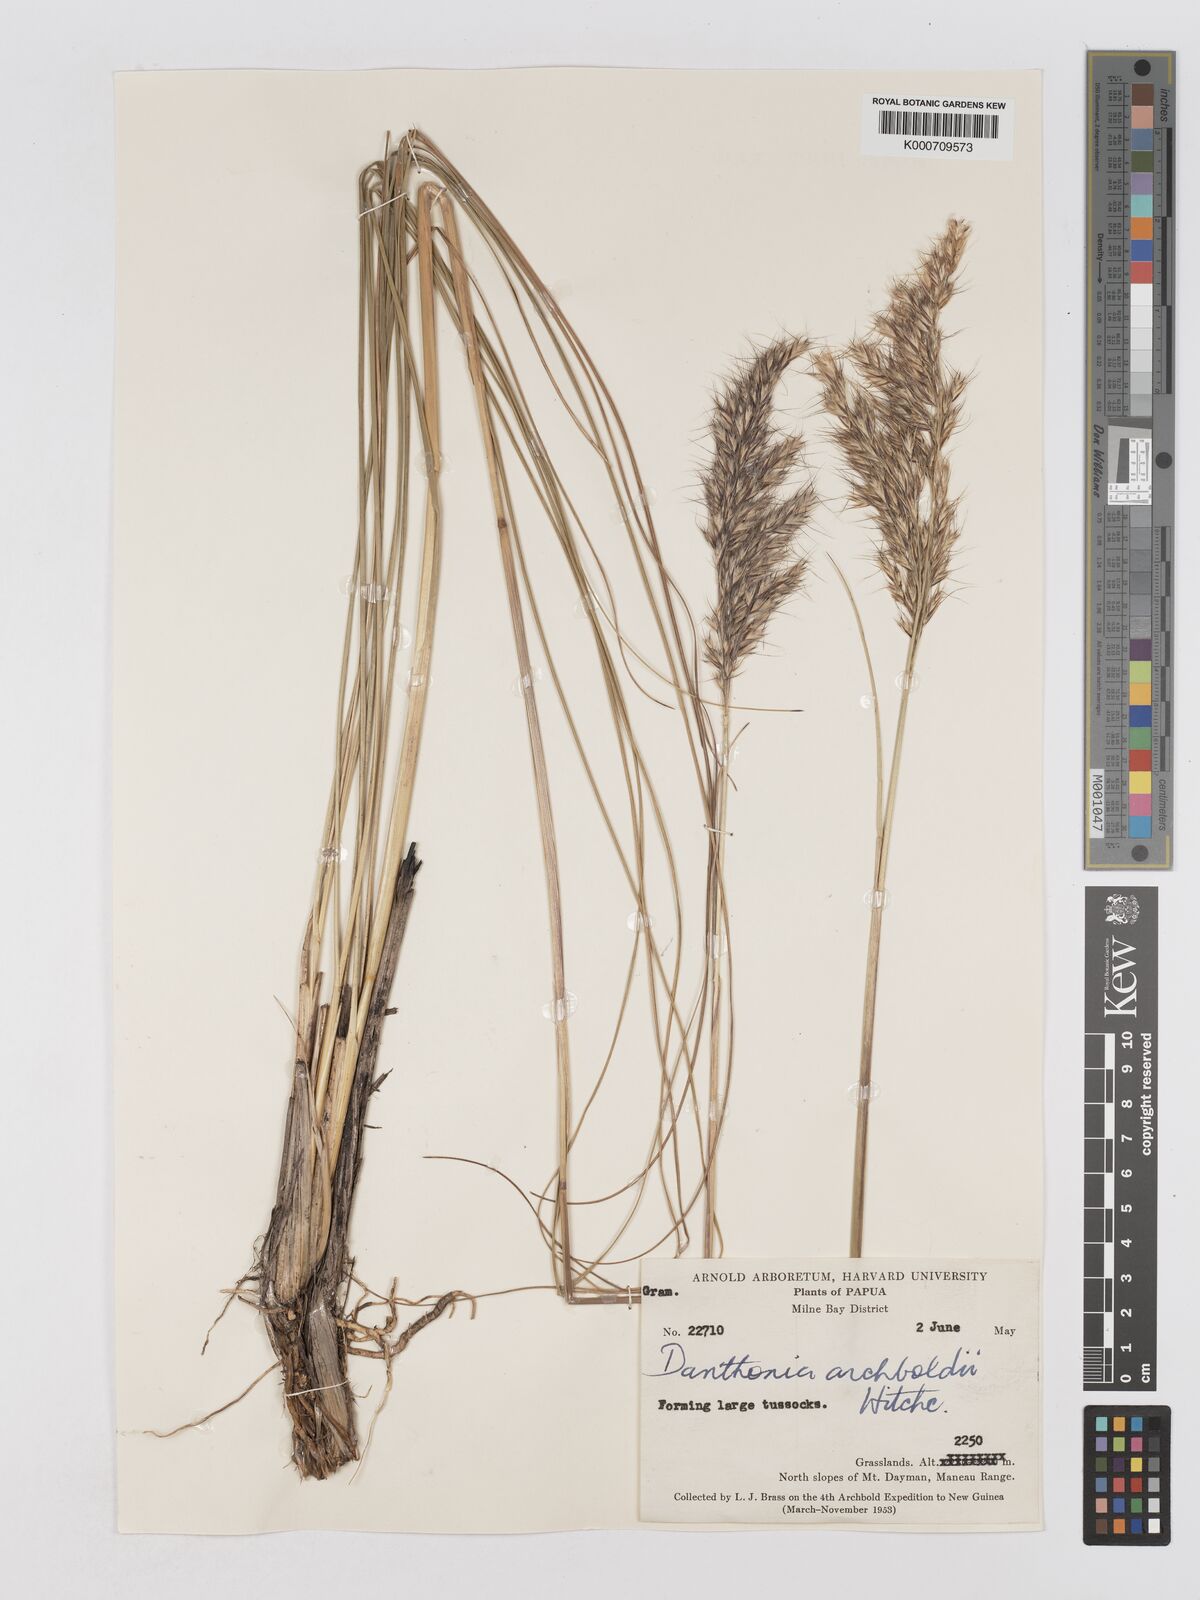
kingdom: Plantae
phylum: Tracheophyta
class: Liliopsida
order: Poales
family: Poaceae
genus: Chimaerochloa
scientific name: Chimaerochloa archboldii
